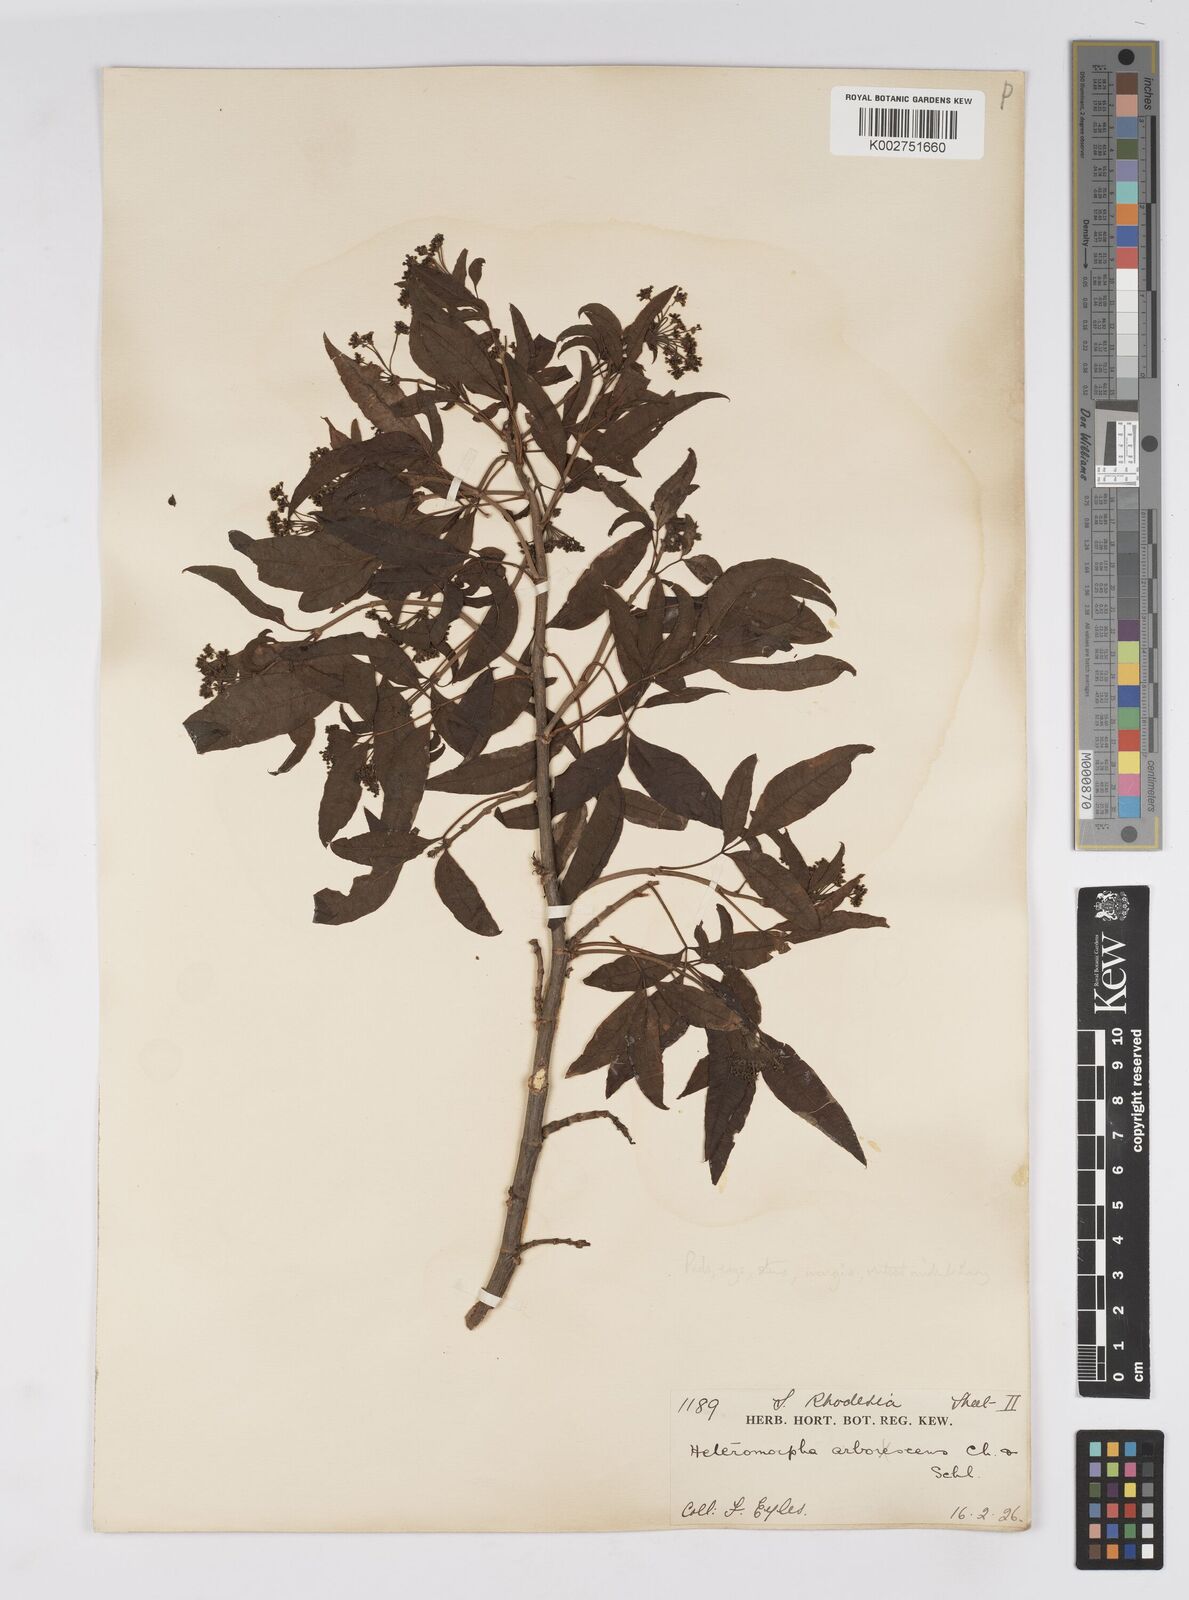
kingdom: Plantae
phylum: Tracheophyta
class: Magnoliopsida
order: Apiales
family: Apiaceae
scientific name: Apiaceae
